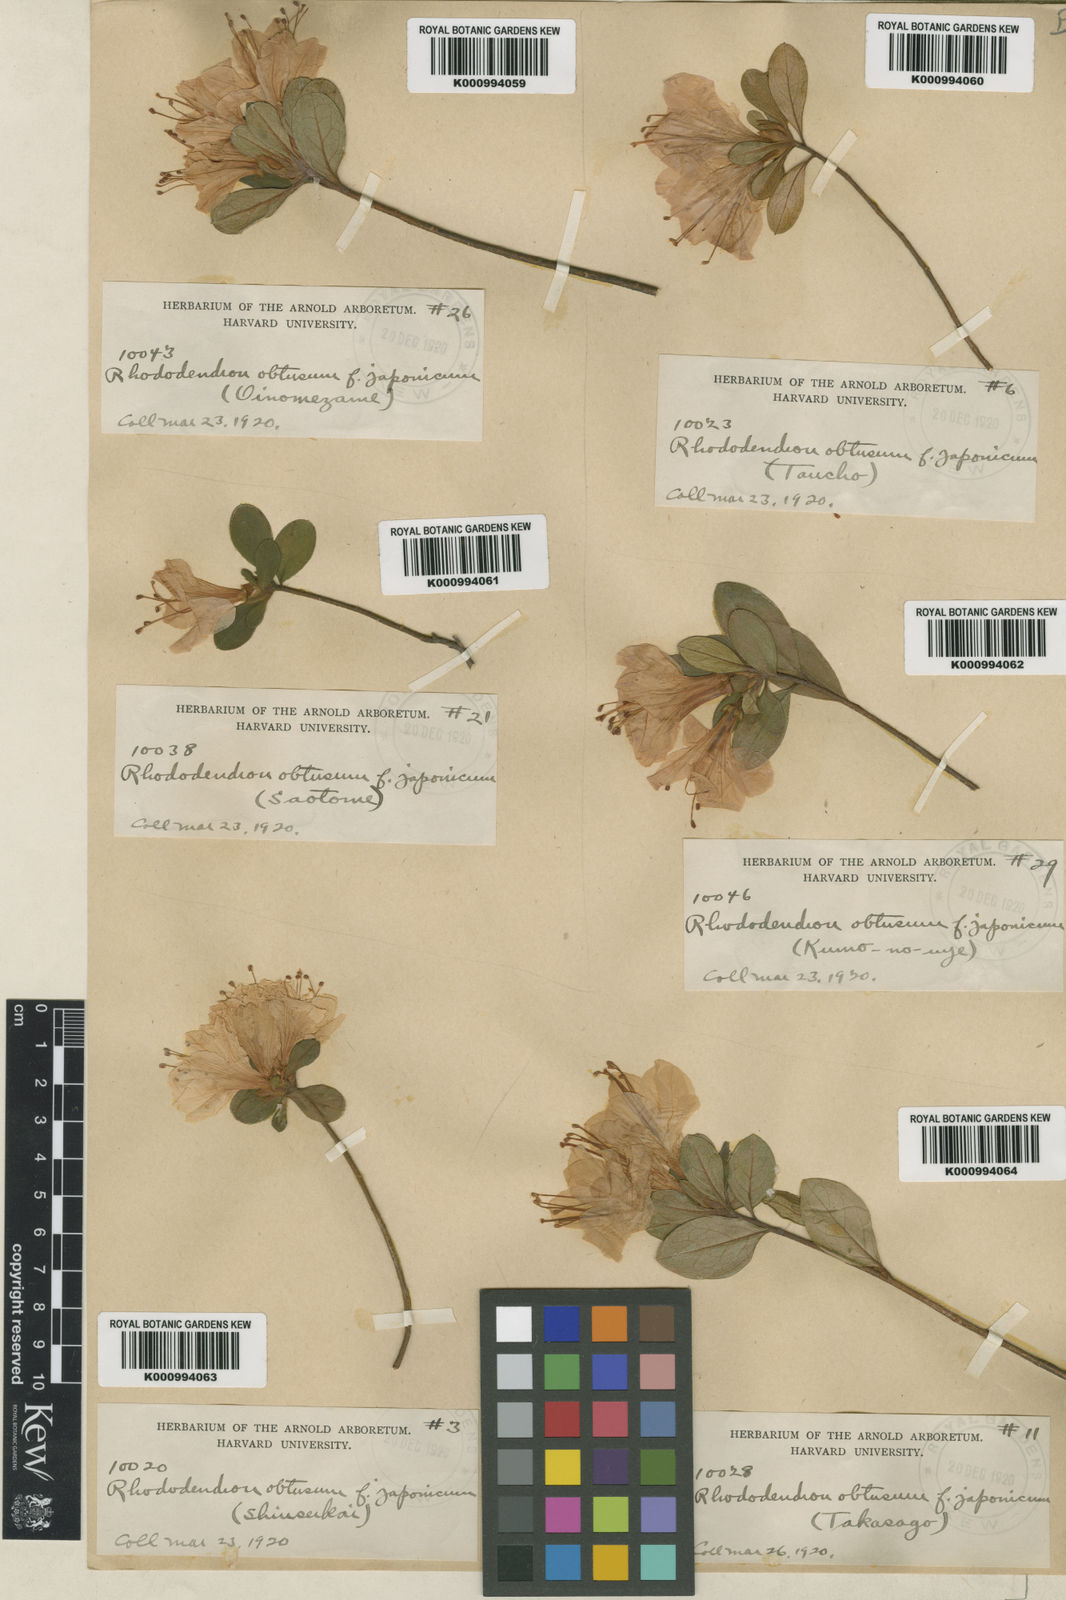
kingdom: Plantae
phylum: Tracheophyta
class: Magnoliopsida
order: Ericales
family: Ericaceae
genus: Rhododendron
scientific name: Rhododendron kiusianum
